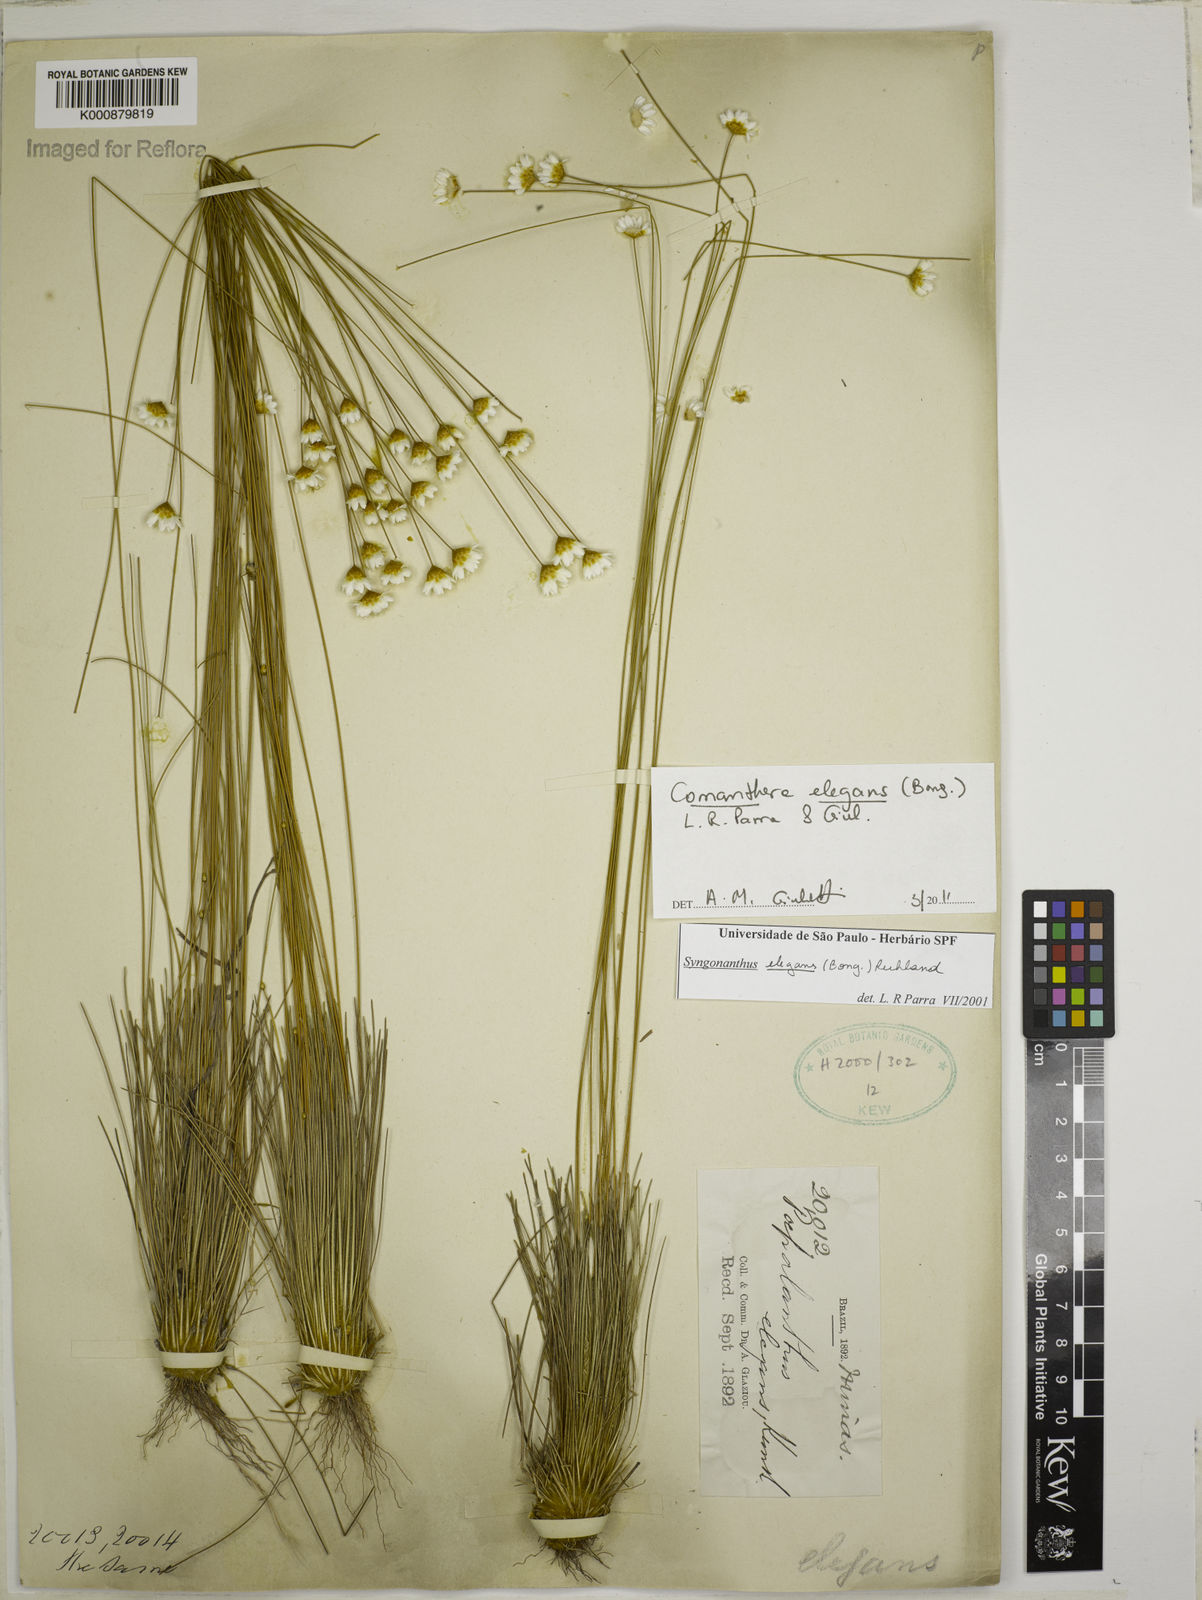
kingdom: Plantae
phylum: Tracheophyta
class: Liliopsida
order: Poales
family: Eriocaulaceae
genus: Comanthera
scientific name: Comanthera elegans
